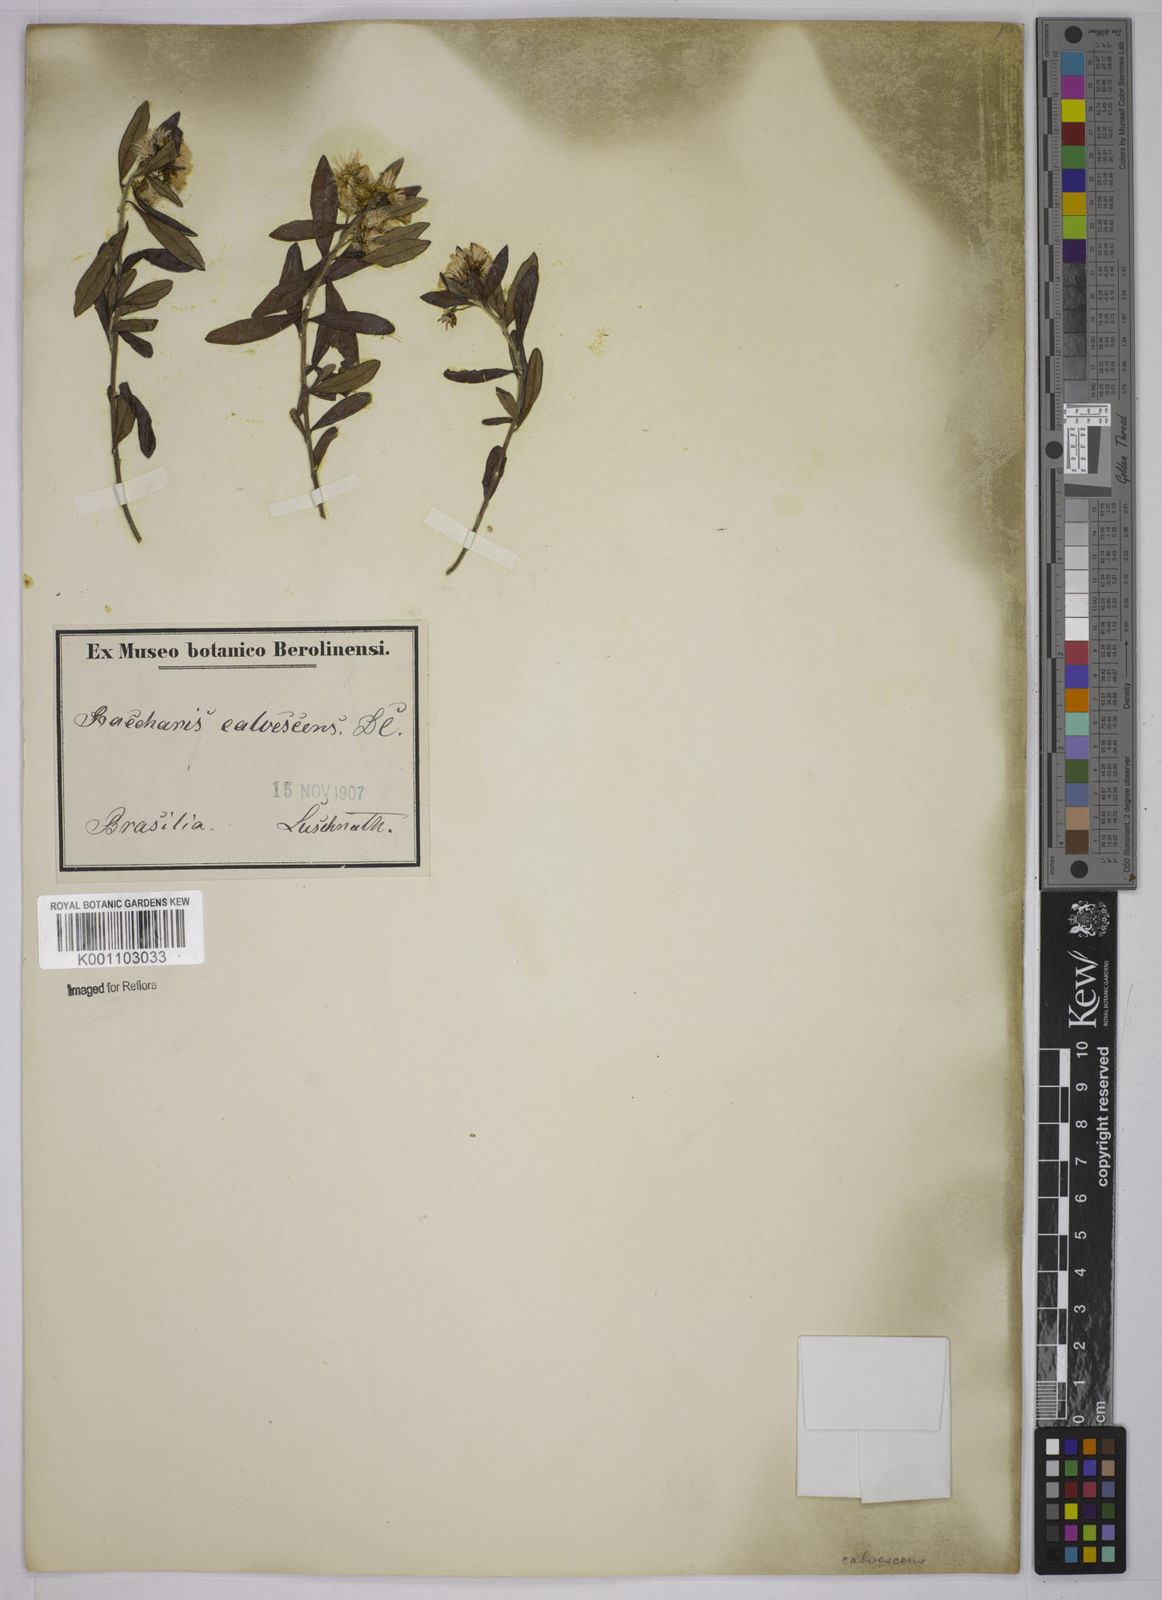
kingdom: Plantae
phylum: Tracheophyta
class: Magnoliopsida
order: Asterales
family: Asteraceae
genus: Baccharis
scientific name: Baccharis calvescens
